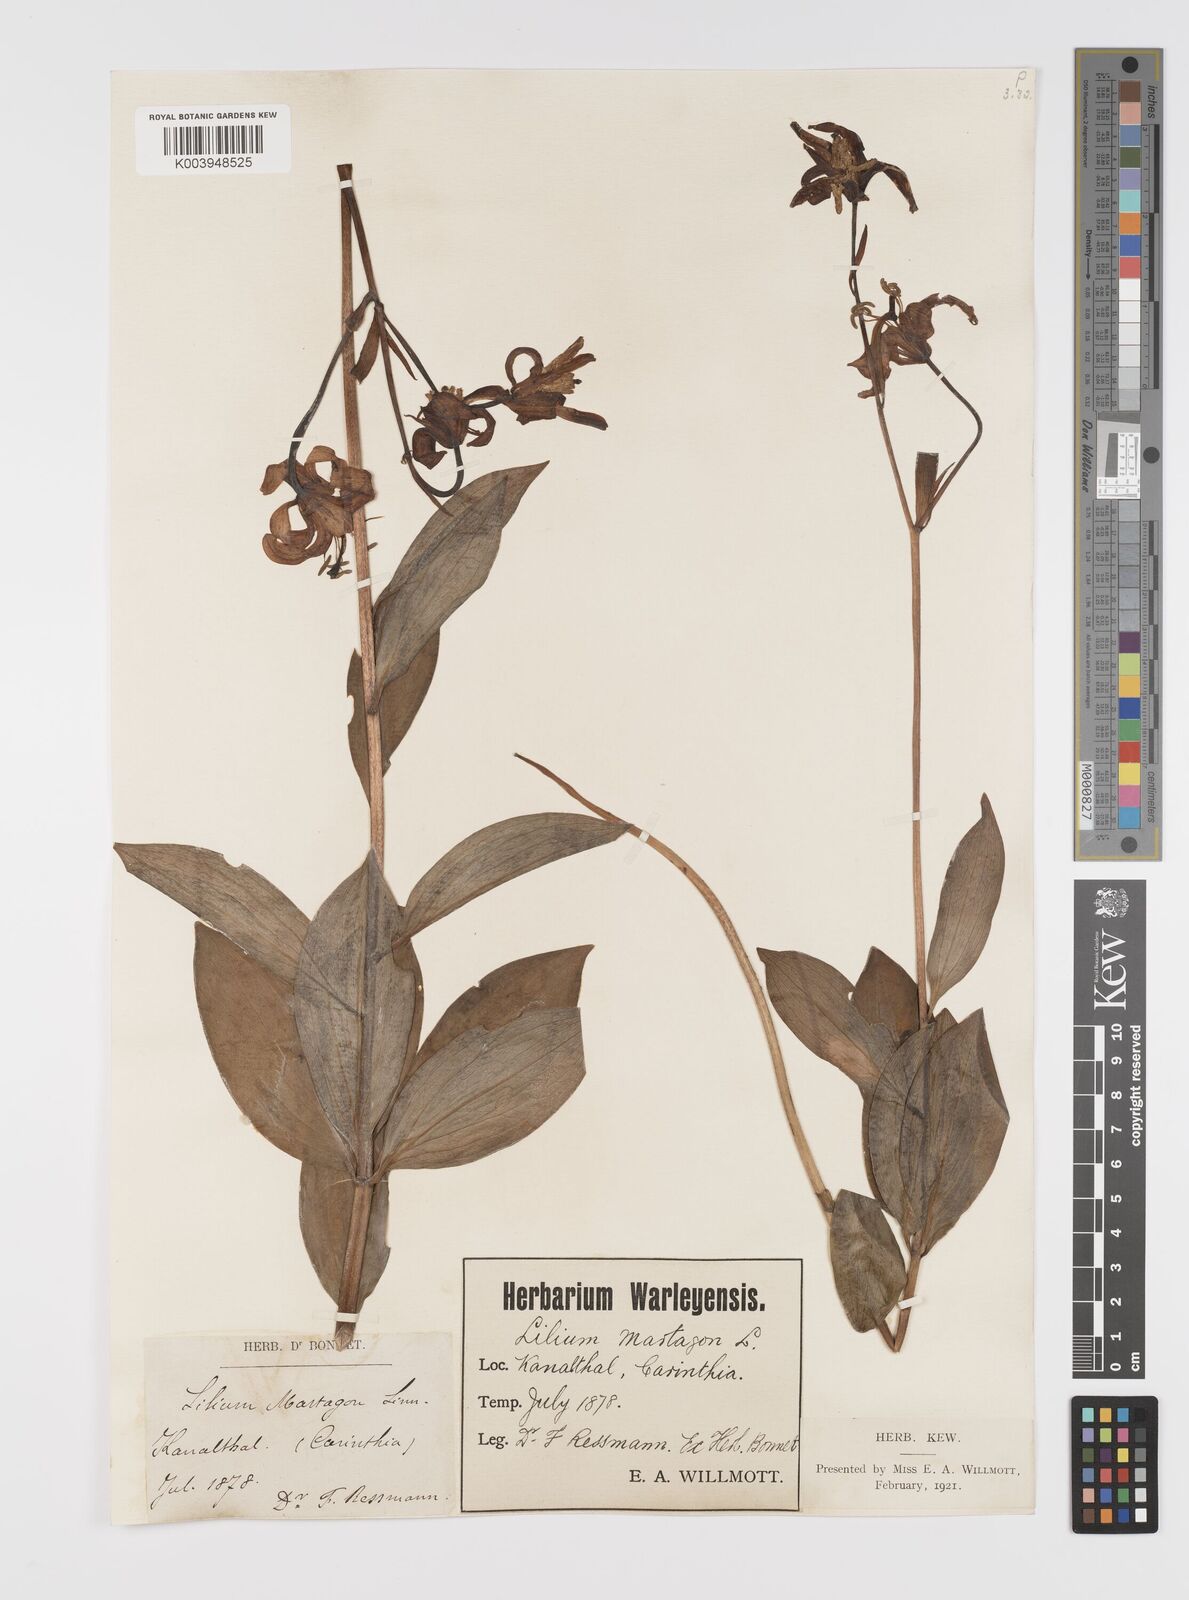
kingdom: Plantae
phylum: Tracheophyta
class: Liliopsida
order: Liliales
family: Liliaceae
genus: Lilium
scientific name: Lilium martagon
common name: Martagon lily
